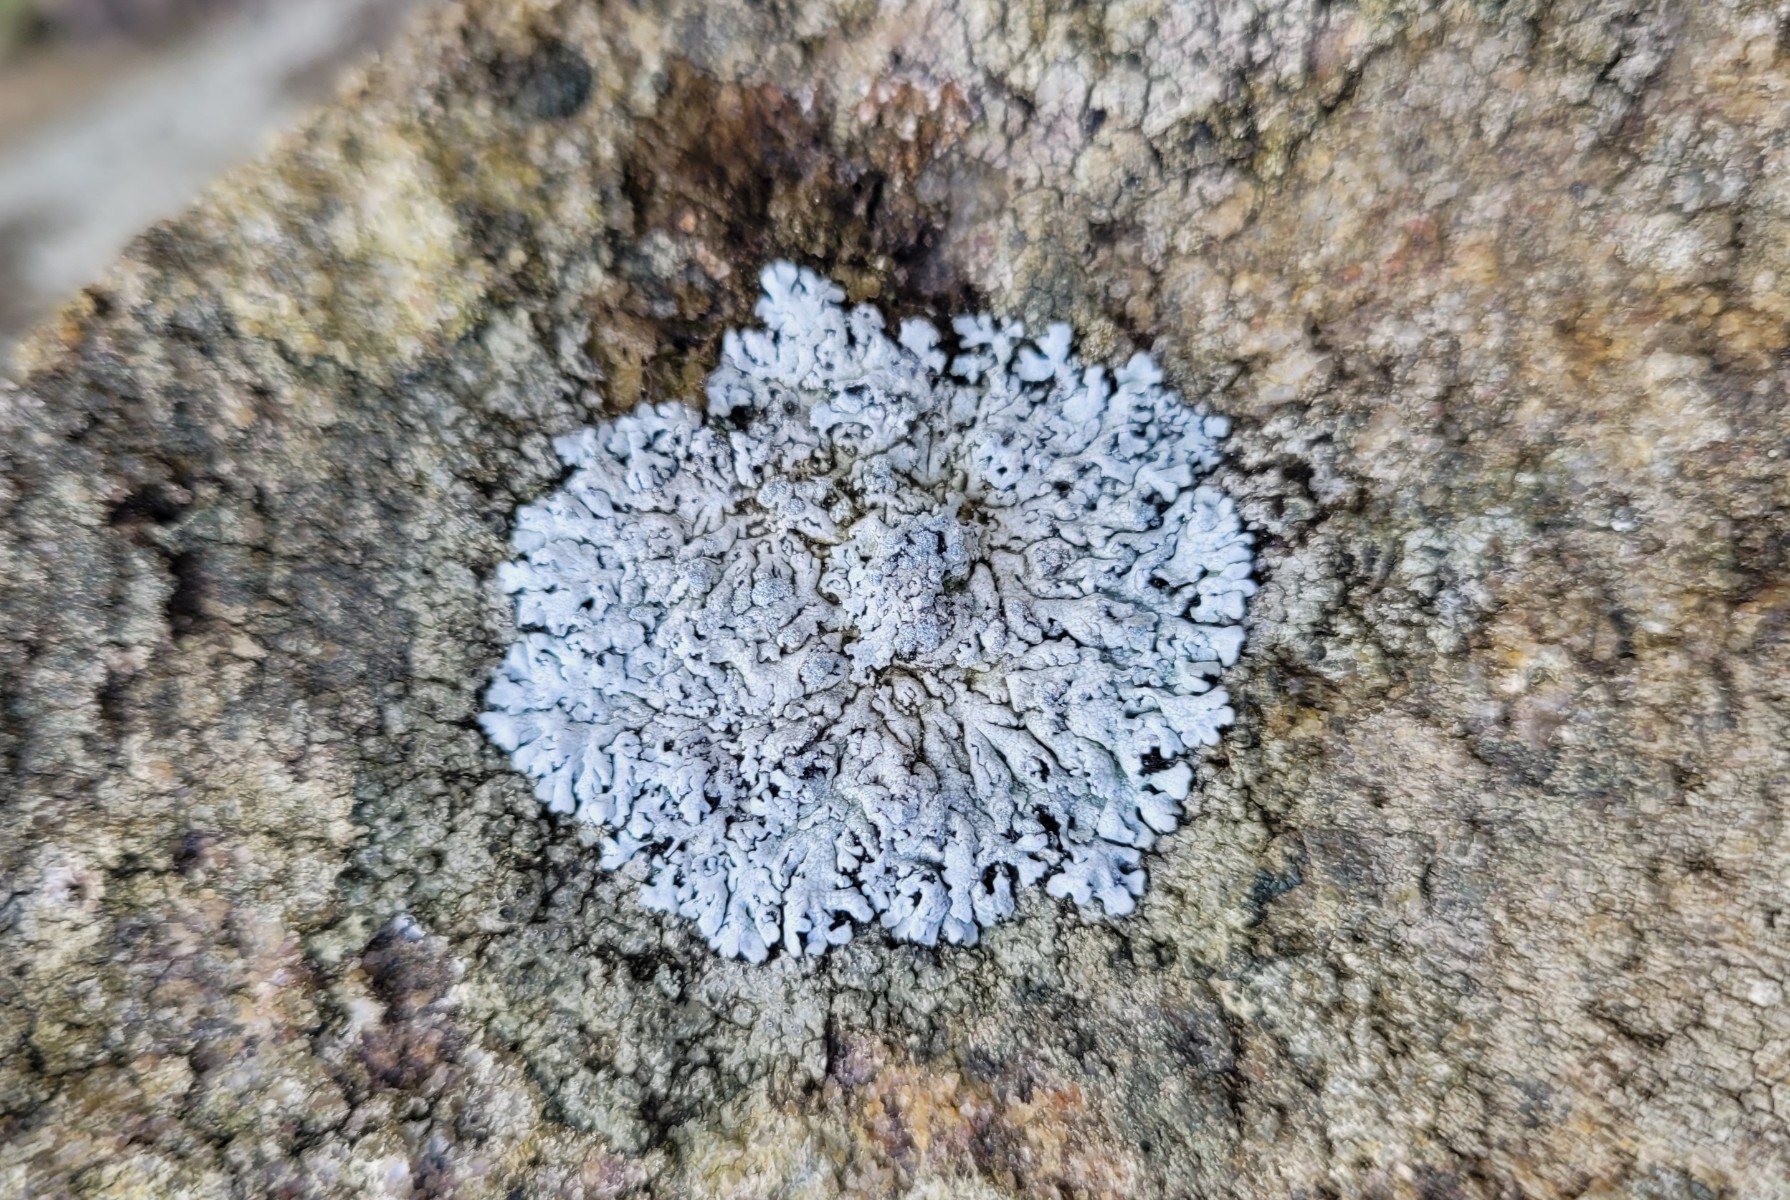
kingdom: Fungi
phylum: Ascomycota
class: Lecanoromycetes
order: Caliciales
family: Physciaceae
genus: Physcia
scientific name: Physcia caesia
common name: blågrå rosetlav
